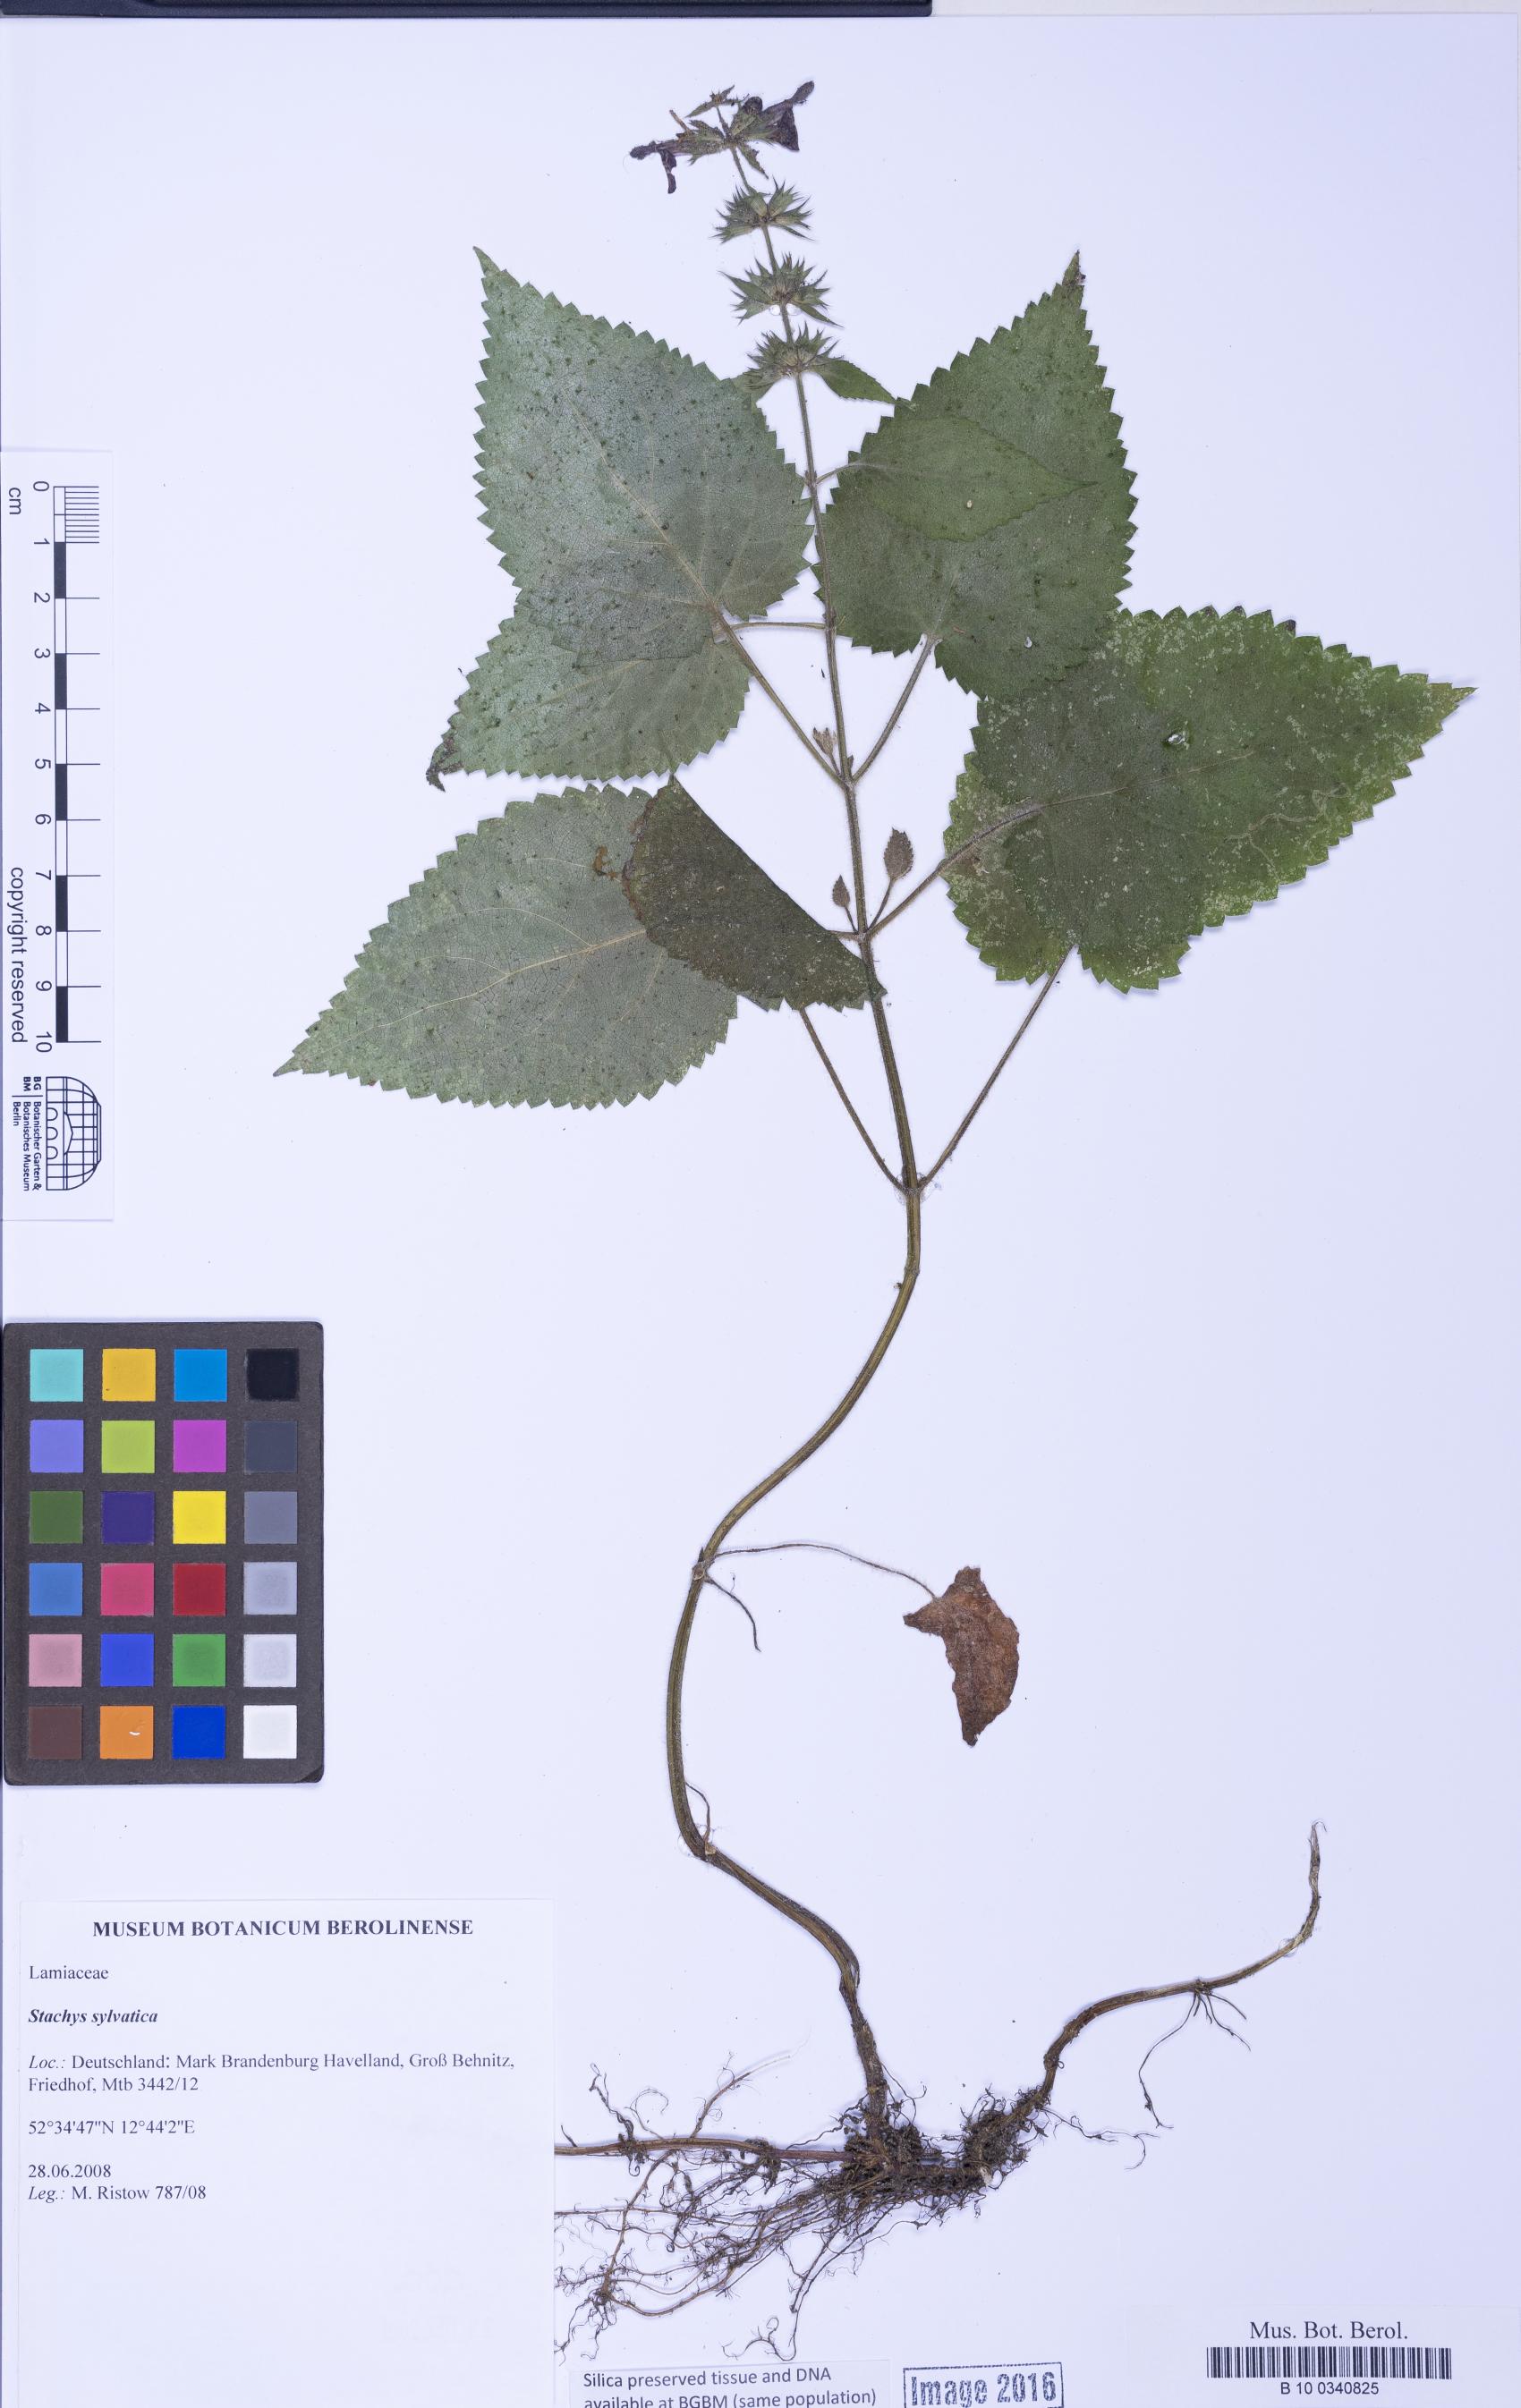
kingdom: Plantae
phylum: Tracheophyta
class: Magnoliopsida
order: Lamiales
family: Lamiaceae
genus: Stachys
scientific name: Stachys sylvatica
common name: Hedge woundwort
